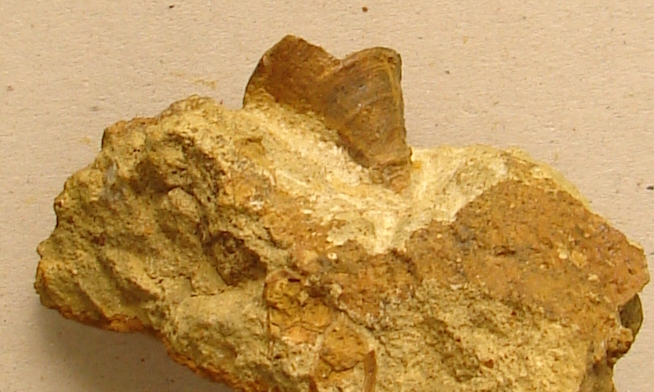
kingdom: Animalia
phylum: Mollusca
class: Gastropoda
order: Pleurotomariida
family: Pleurotomariidae
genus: Pyrgotrochus
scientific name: Pyrgotrochus elongatus
